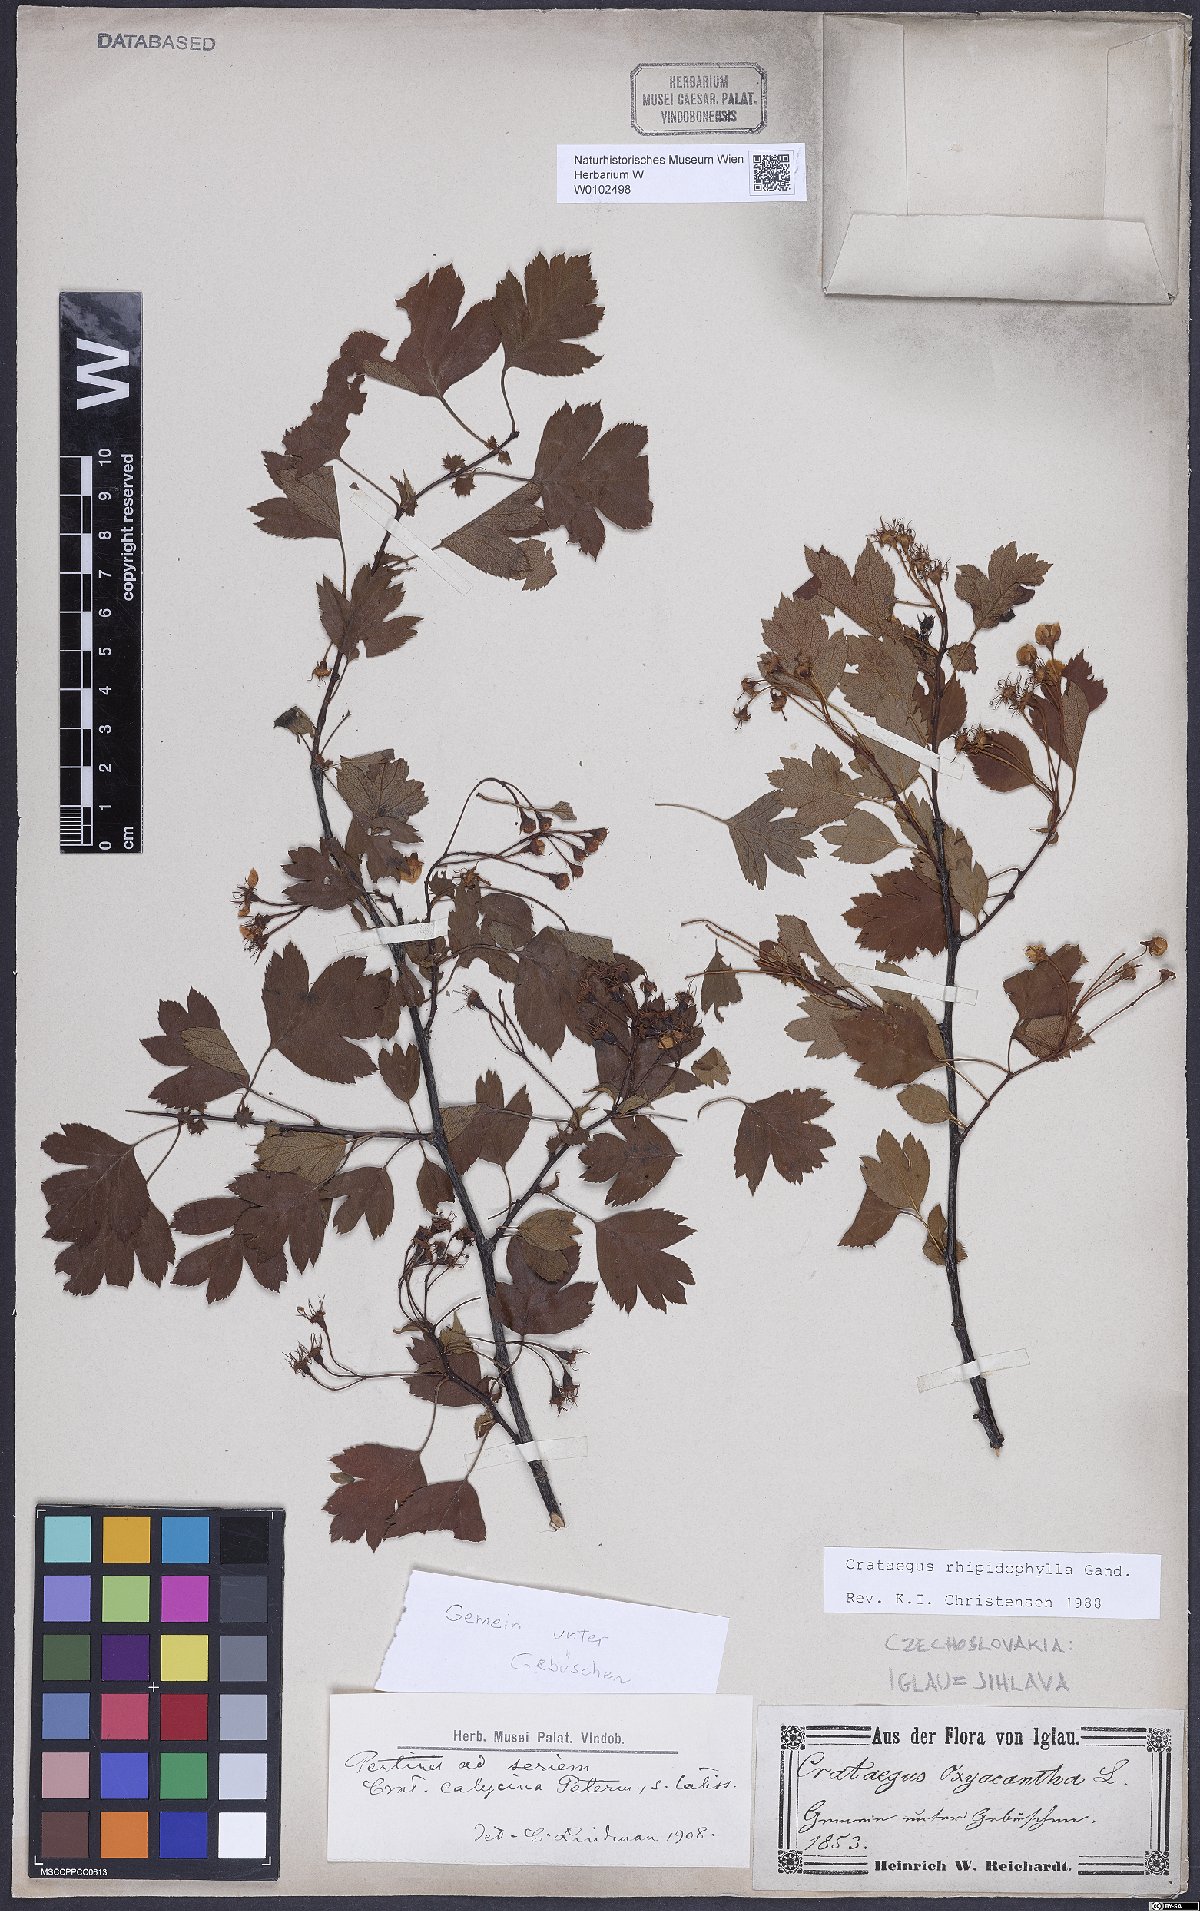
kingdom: Plantae
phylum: Tracheophyta
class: Magnoliopsida
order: Rosales
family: Rosaceae
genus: Crataegus
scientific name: Crataegus rhipidophylla
